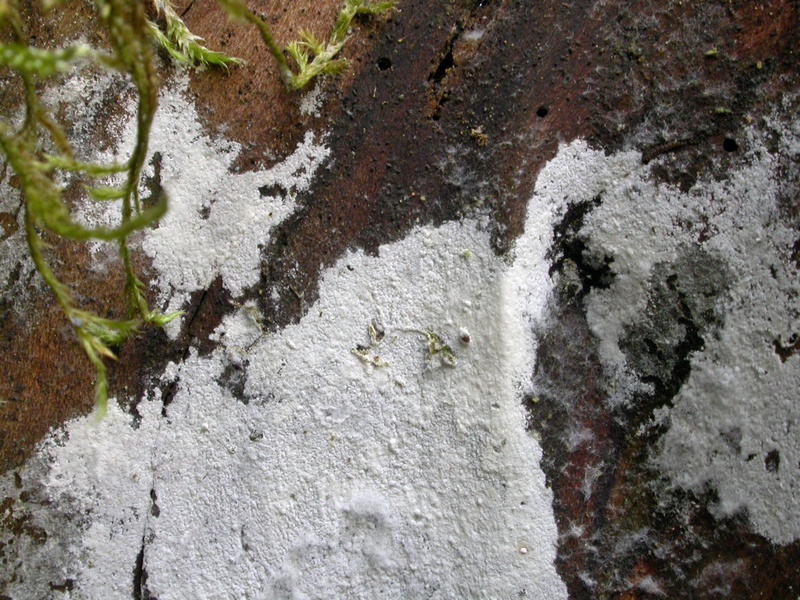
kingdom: Fungi
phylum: Basidiomycota
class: Agaricomycetes
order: Atheliales
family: Atheliaceae
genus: Athelia
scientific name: Athelia neuhoffii
